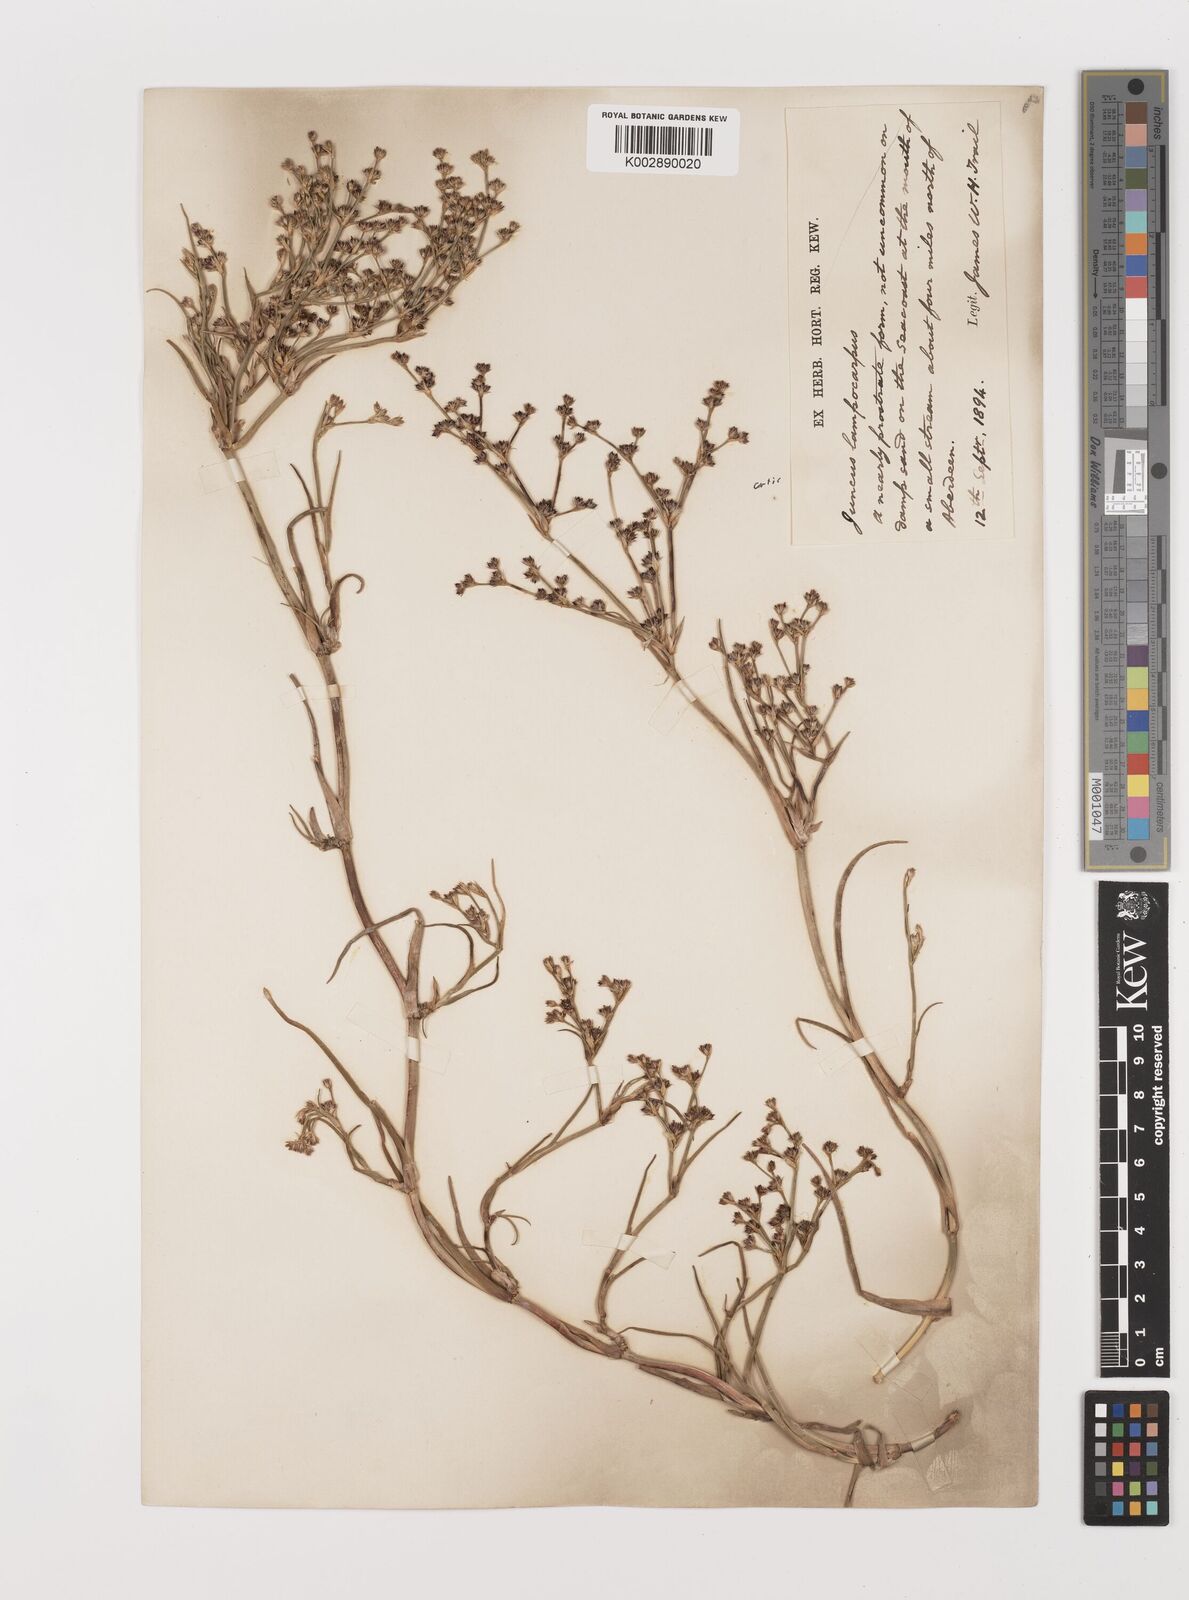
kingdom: Plantae
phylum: Tracheophyta
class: Liliopsida
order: Poales
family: Juncaceae
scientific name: Juncaceae
